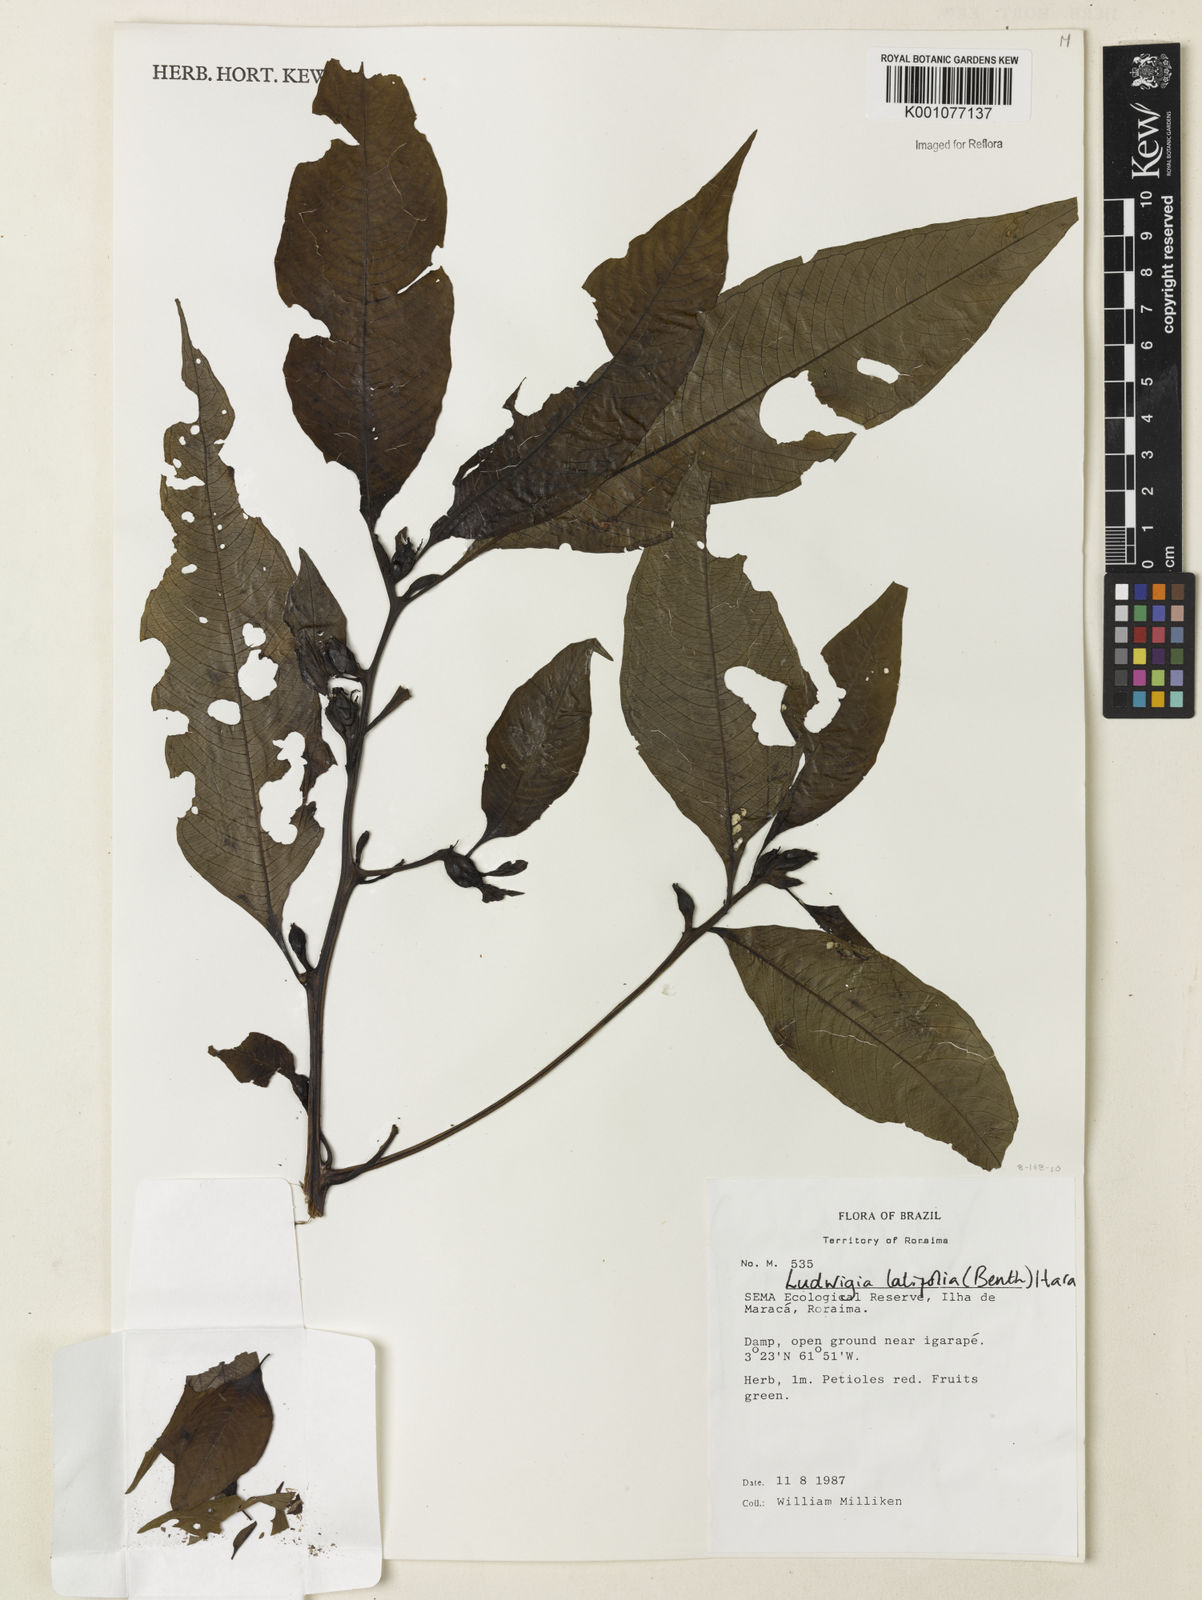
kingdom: Plantae
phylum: Tracheophyta
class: Magnoliopsida
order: Myrtales
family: Onagraceae
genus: Ludwigia
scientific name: Ludwigia latifolia
